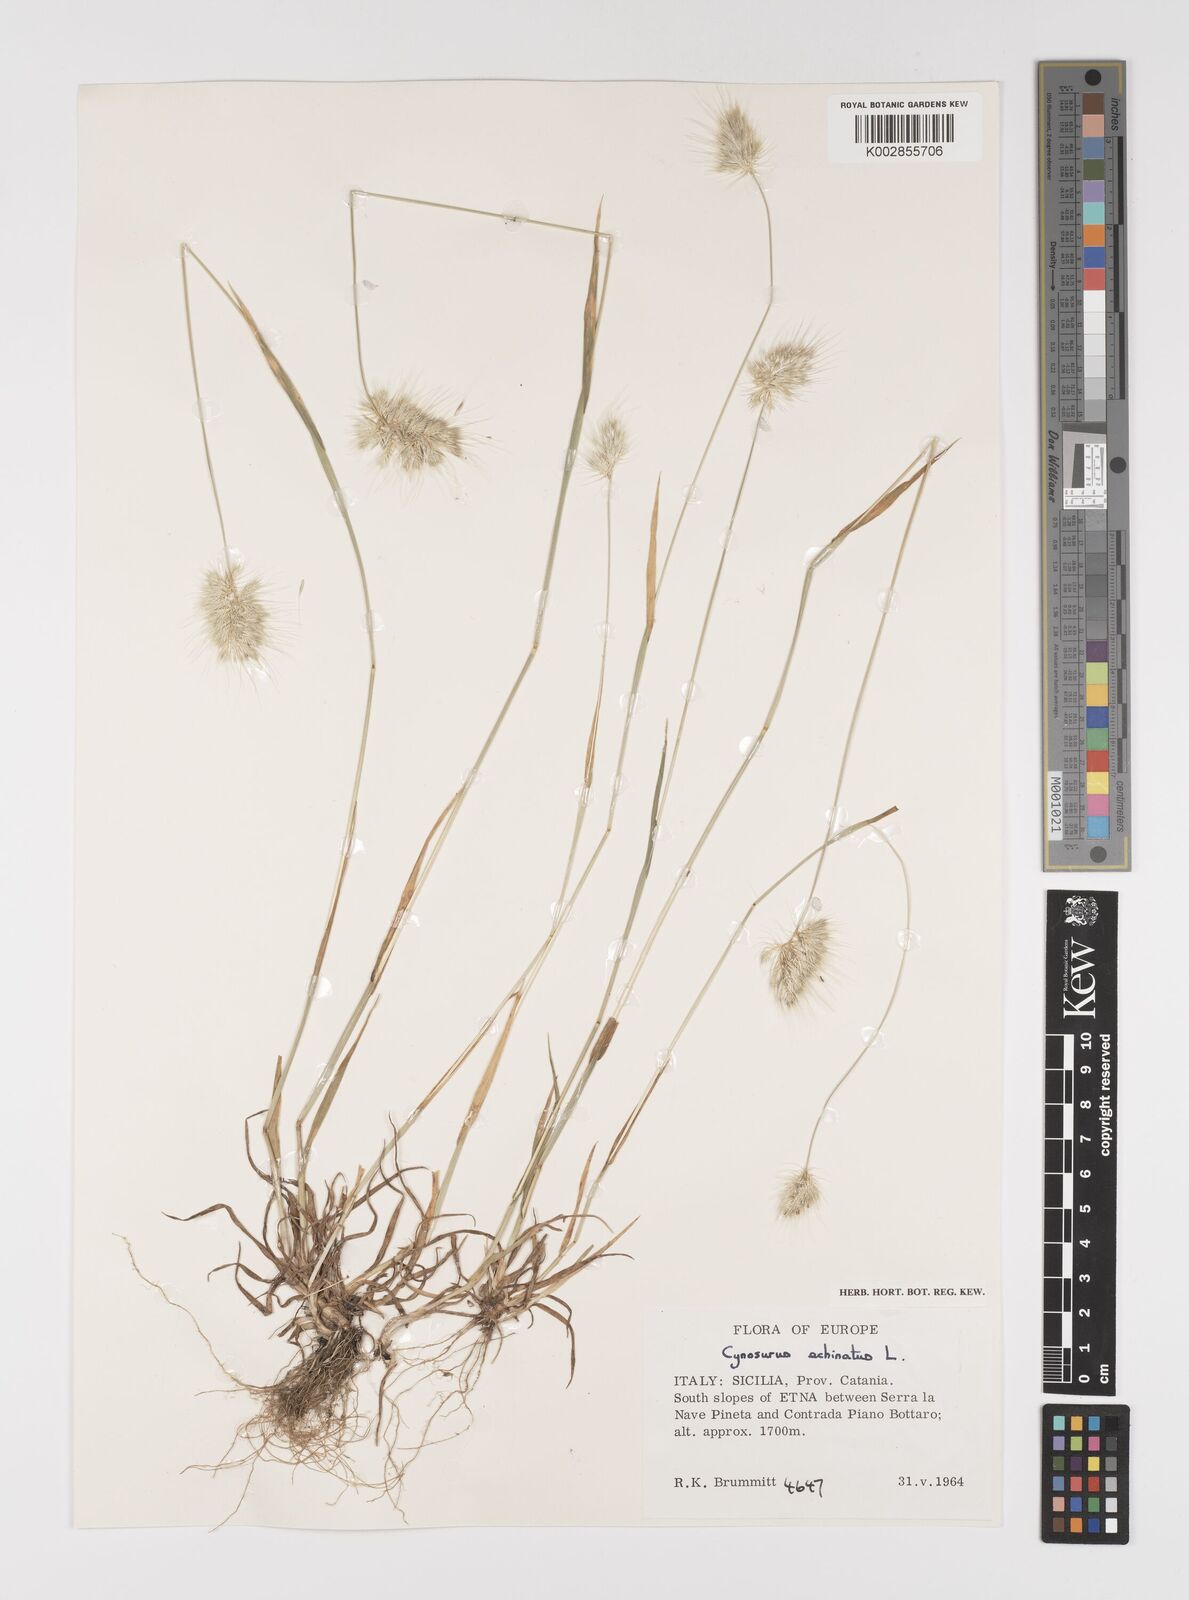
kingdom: Plantae
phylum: Tracheophyta
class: Liliopsida
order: Poales
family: Poaceae
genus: Cynosurus
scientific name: Cynosurus echinatus
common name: Rough dog's-tail
